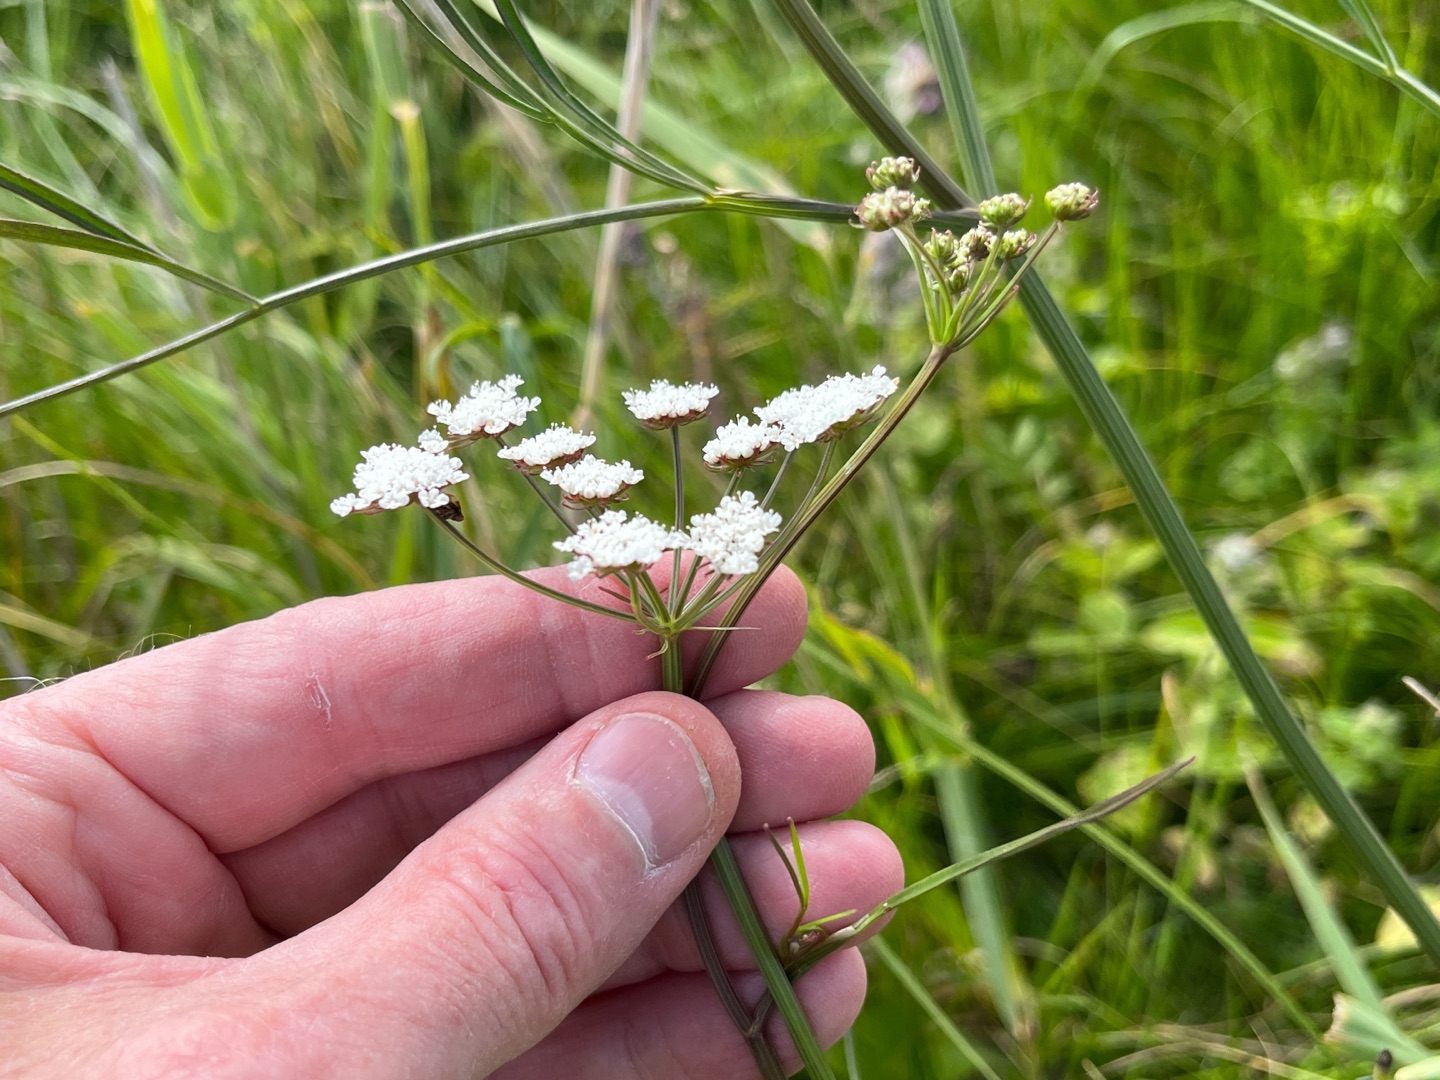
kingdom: Plantae
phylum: Tracheophyta
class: Magnoliopsida
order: Apiales
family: Apiaceae
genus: Oenanthe
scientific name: Oenanthe lachenalii
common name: Eng-klaseskærm
